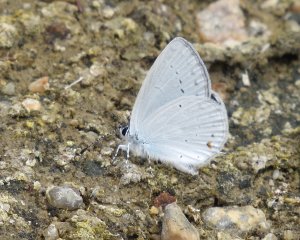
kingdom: Animalia
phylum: Arthropoda
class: Insecta
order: Lepidoptera
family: Lycaenidae
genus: Elkalyce
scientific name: Elkalyce amyntula
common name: Western Tailed-Blue
